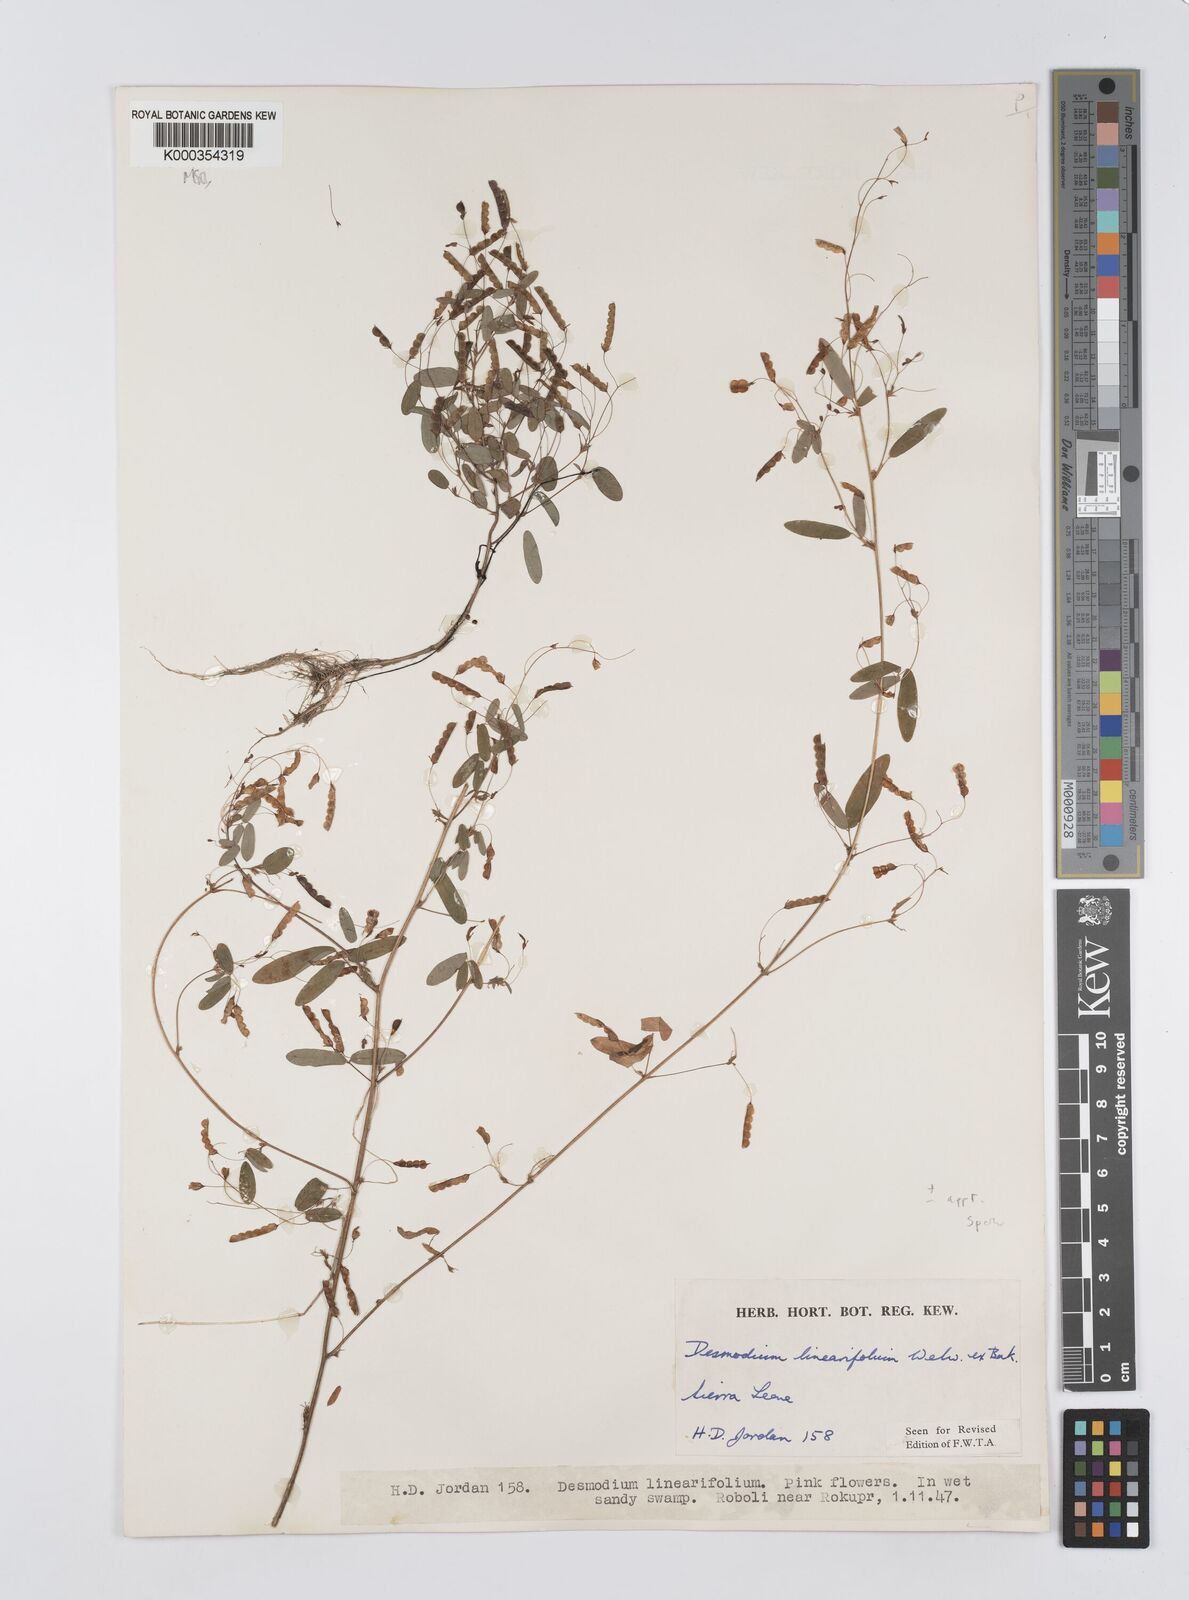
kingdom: Plantae
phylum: Tracheophyta
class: Magnoliopsida
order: Fabales
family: Fabaceae
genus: Desmodium
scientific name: Desmodium linearifolium
